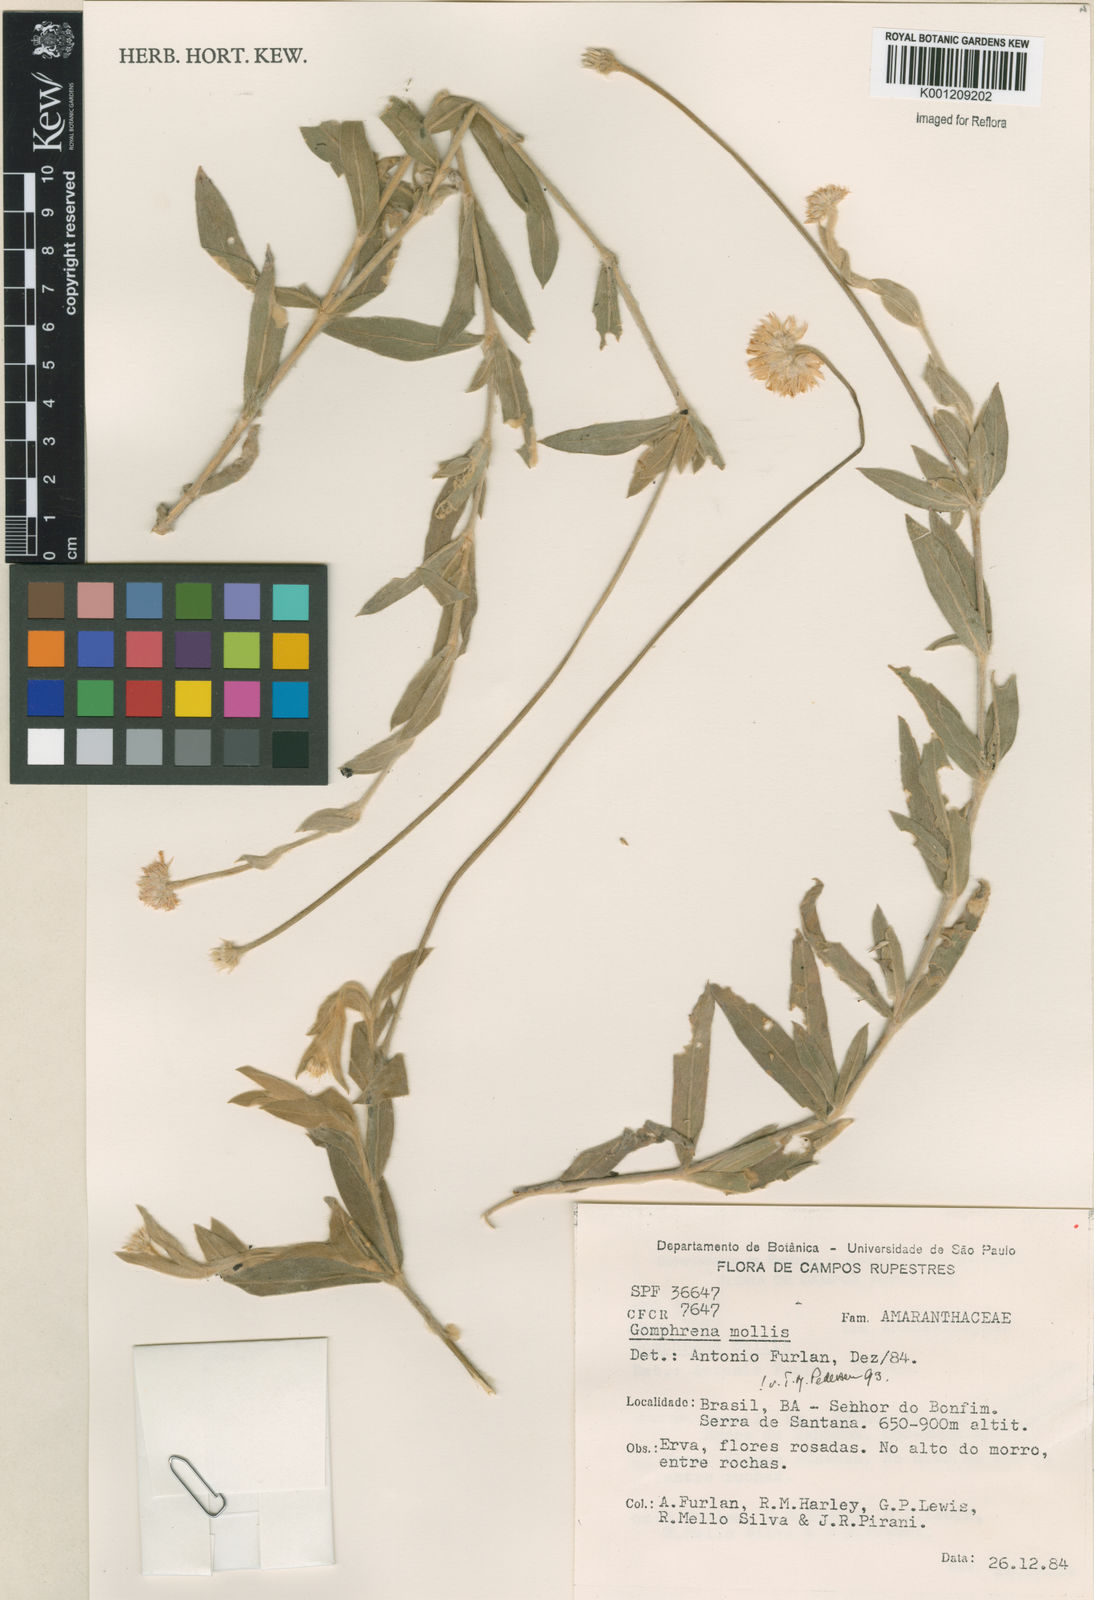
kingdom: Plantae
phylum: Tracheophyta
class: Magnoliopsida
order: Caryophyllales
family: Amaranthaceae
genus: Gomphrena
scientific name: Gomphrena mollis
